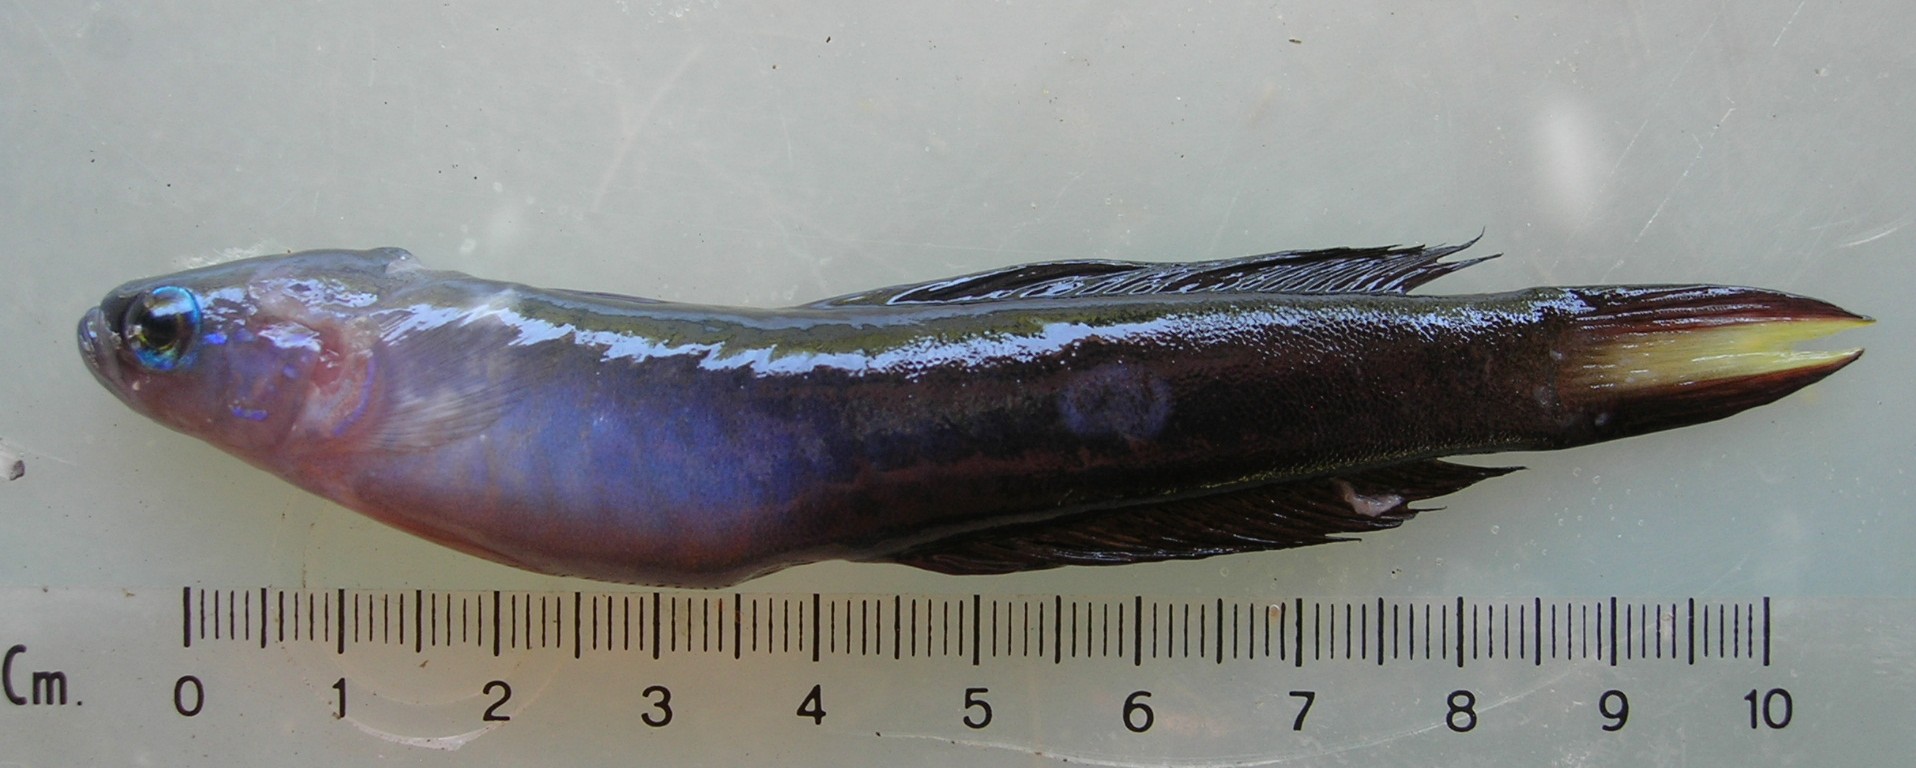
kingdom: Animalia
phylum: Chordata
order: Perciformes
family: Microdesmidae
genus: Ptereleotris
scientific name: Ptereleotris evides
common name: Blackfin dartfish
